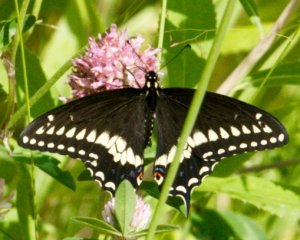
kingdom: Animalia
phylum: Arthropoda
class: Insecta
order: Lepidoptera
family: Papilionidae
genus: Papilio
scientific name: Papilio polyxenes
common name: Black Swallowtail
